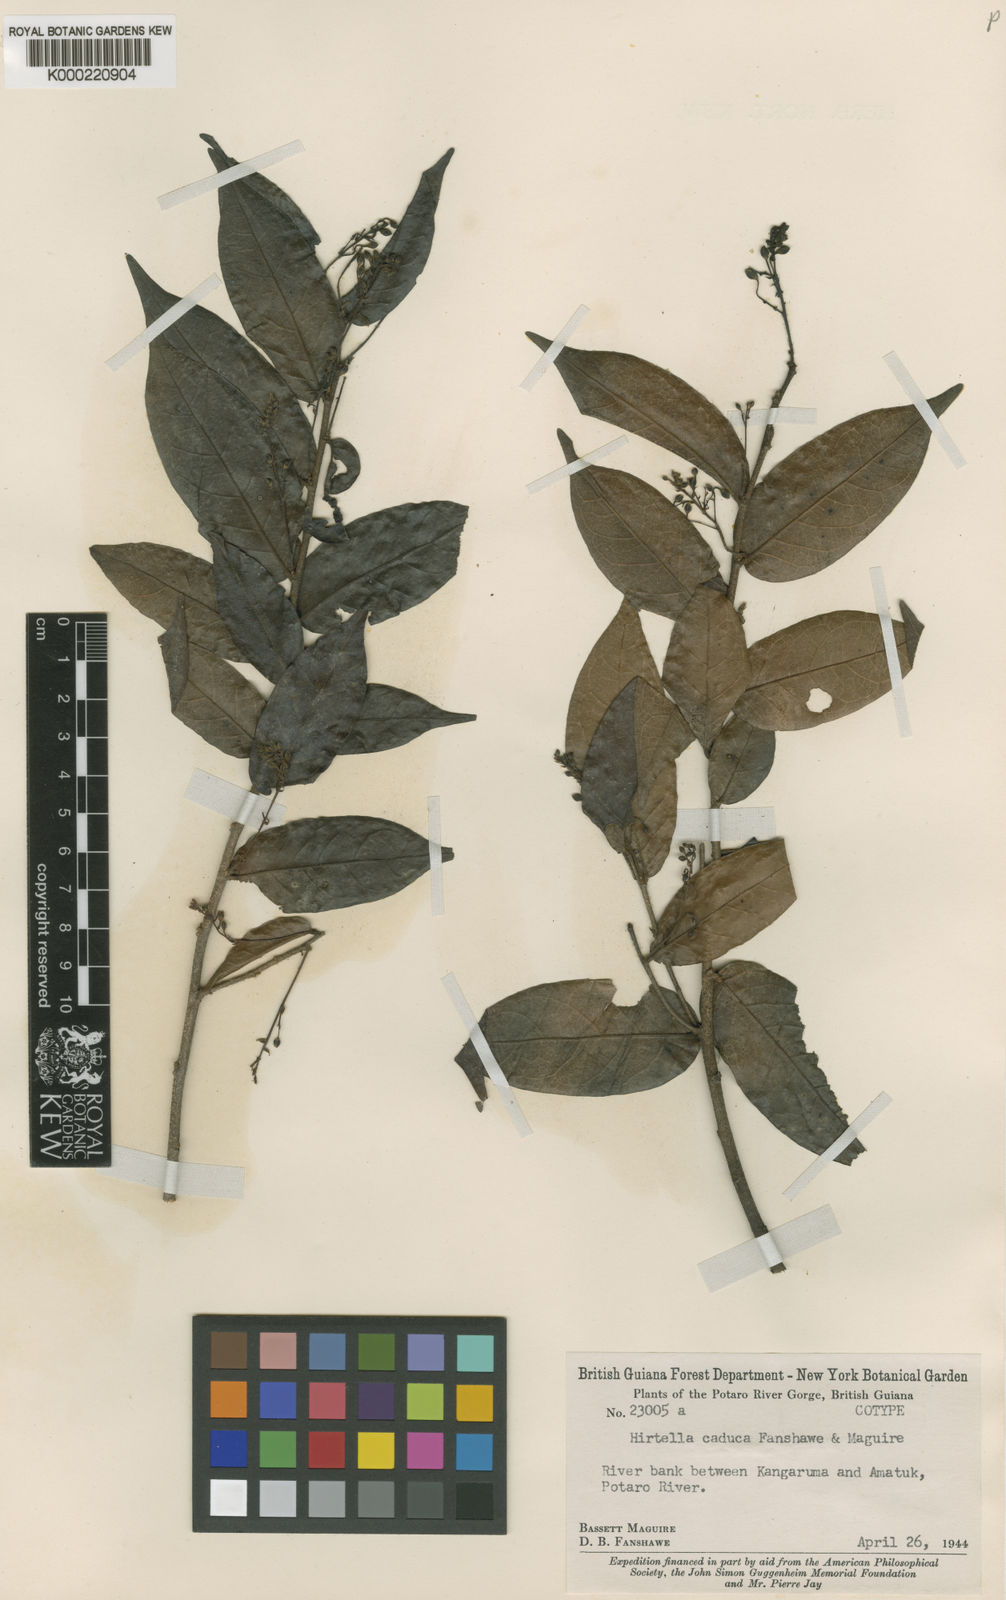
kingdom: Plantae
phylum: Tracheophyta
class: Magnoliopsida
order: Malpighiales
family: Chrysobalanaceae
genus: Hirtella
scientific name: Hirtella caduca
